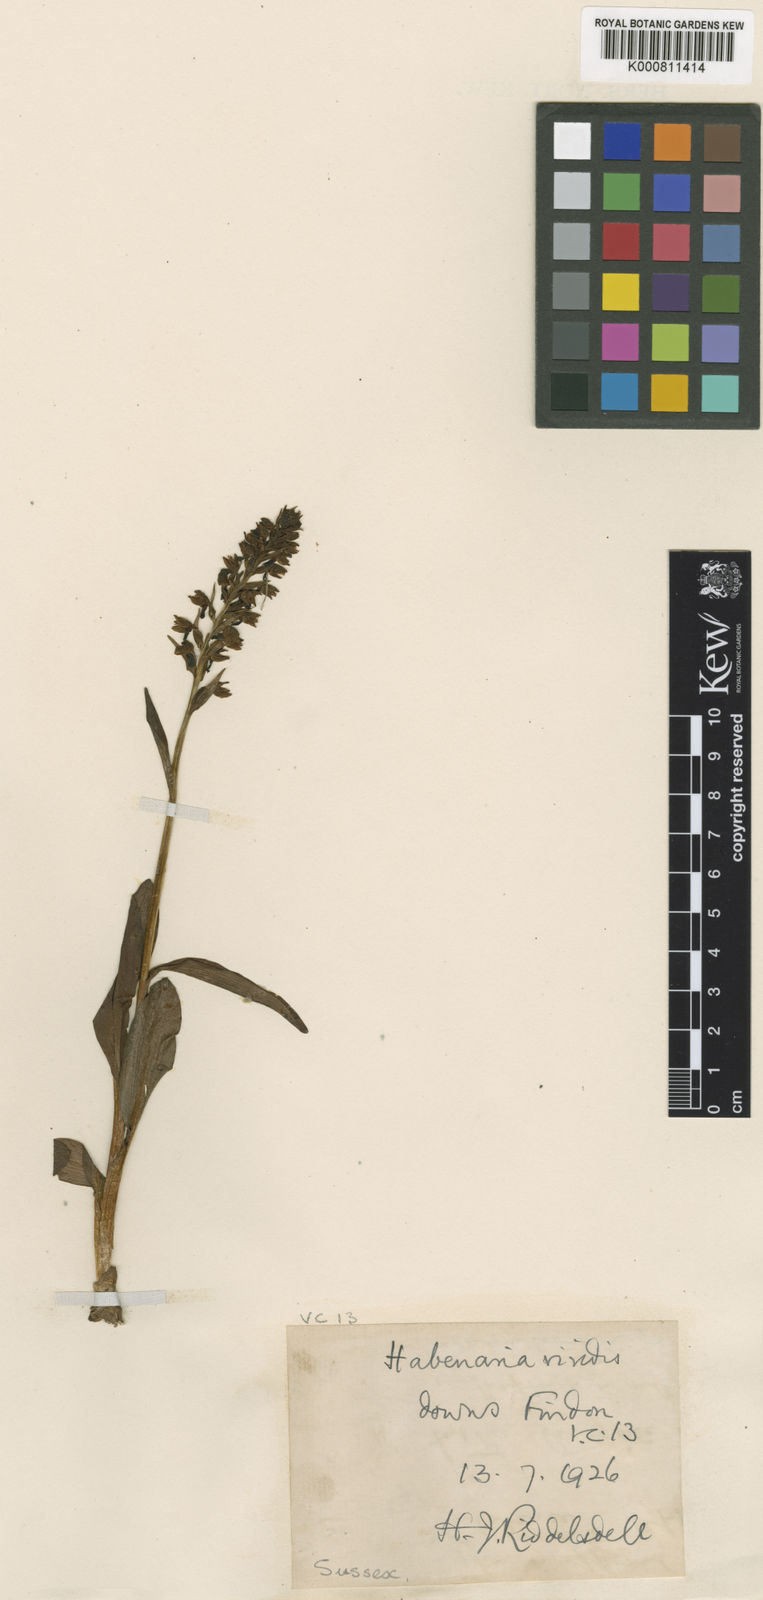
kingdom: Plantae
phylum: Tracheophyta
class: Liliopsida
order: Asparagales
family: Orchidaceae
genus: Dactylorhiza
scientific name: Dactylorhiza viridis
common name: Longbract frog orchid
